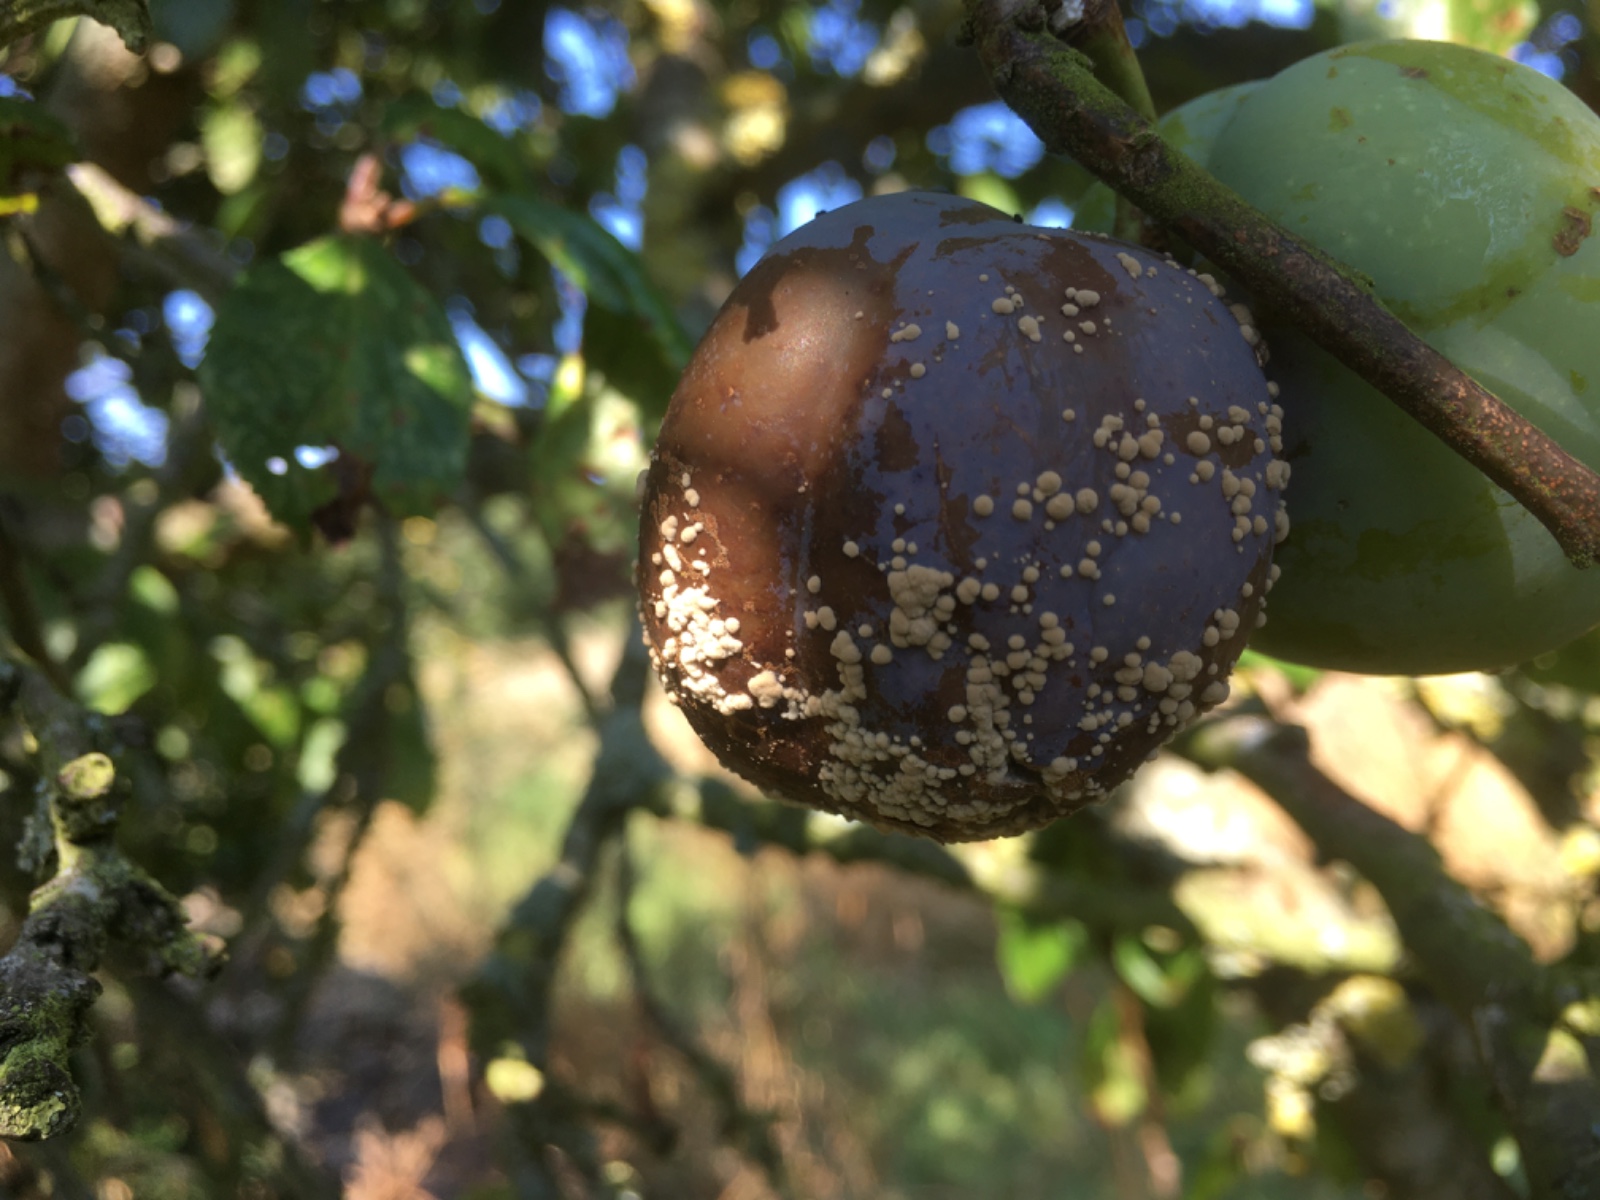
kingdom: Fungi
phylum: Ascomycota
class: Leotiomycetes
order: Helotiales
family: Sclerotiniaceae
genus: Monilinia
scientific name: Monilinia laxa
